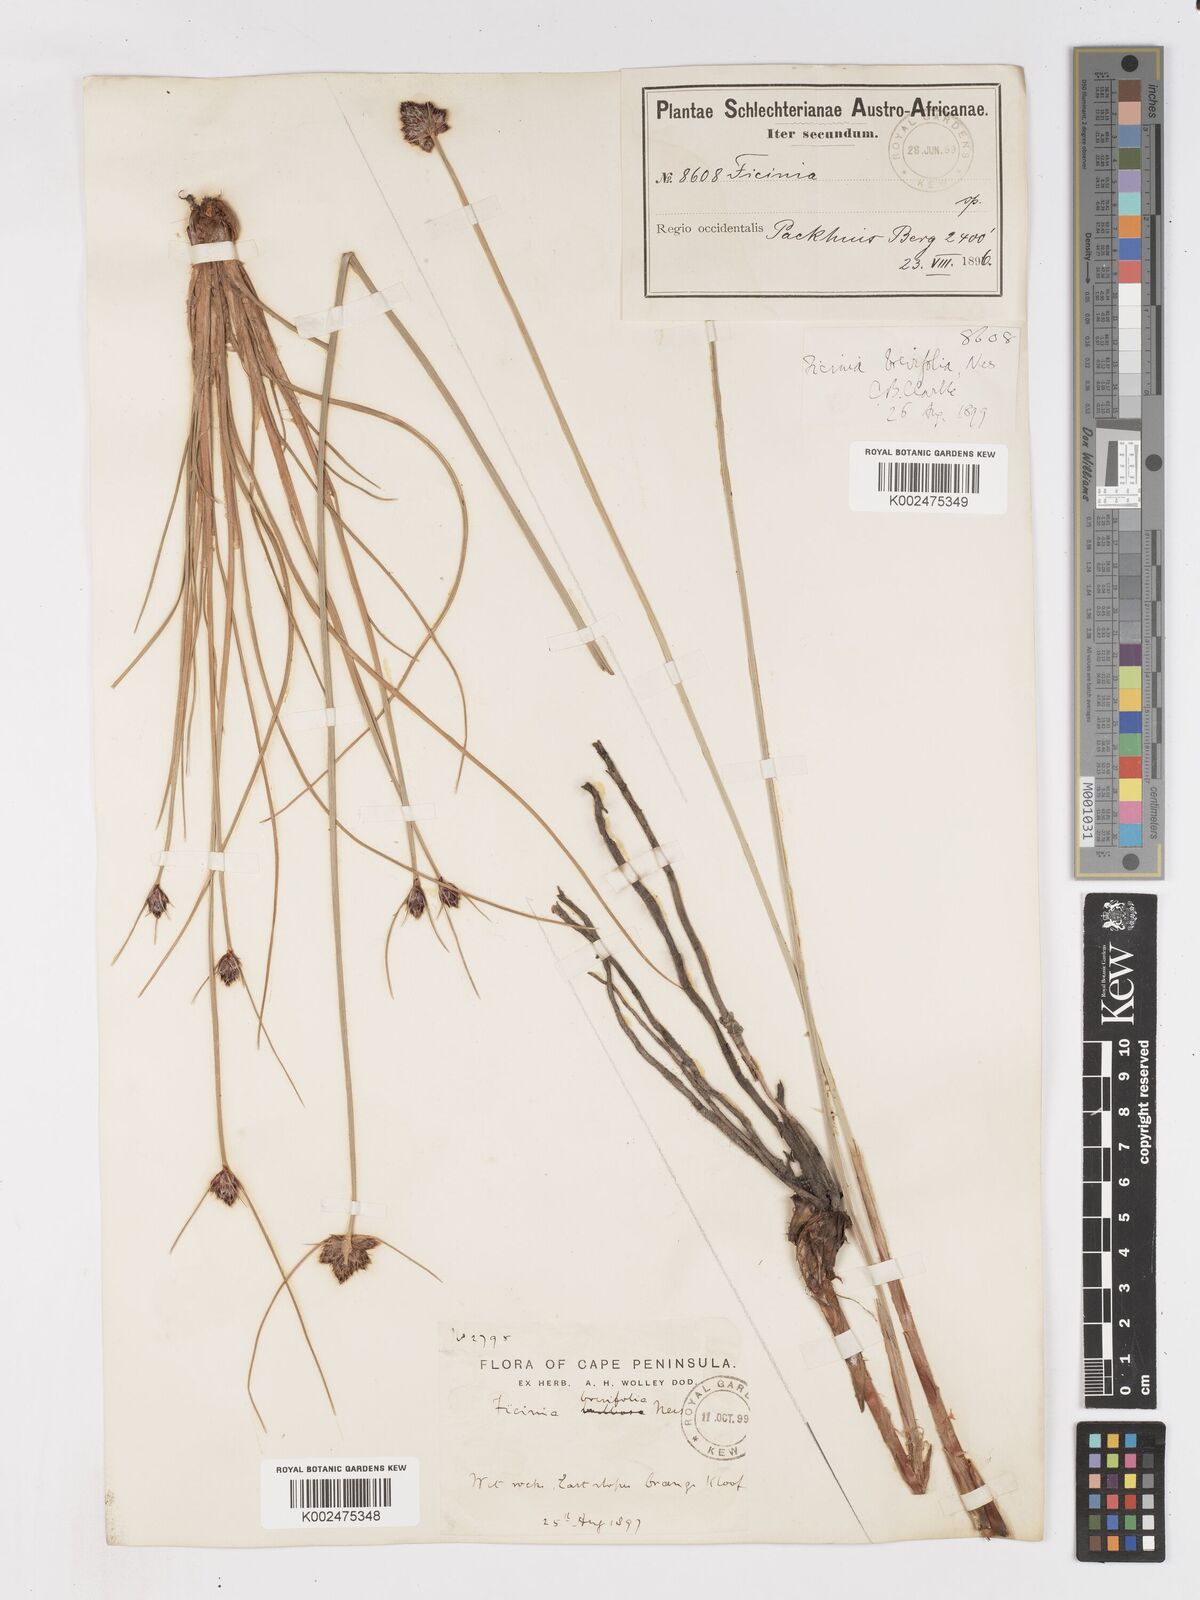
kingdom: Plantae
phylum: Tracheophyta
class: Liliopsida
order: Poales
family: Cyperaceae
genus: Ficinia
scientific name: Ficinia brevifolia
